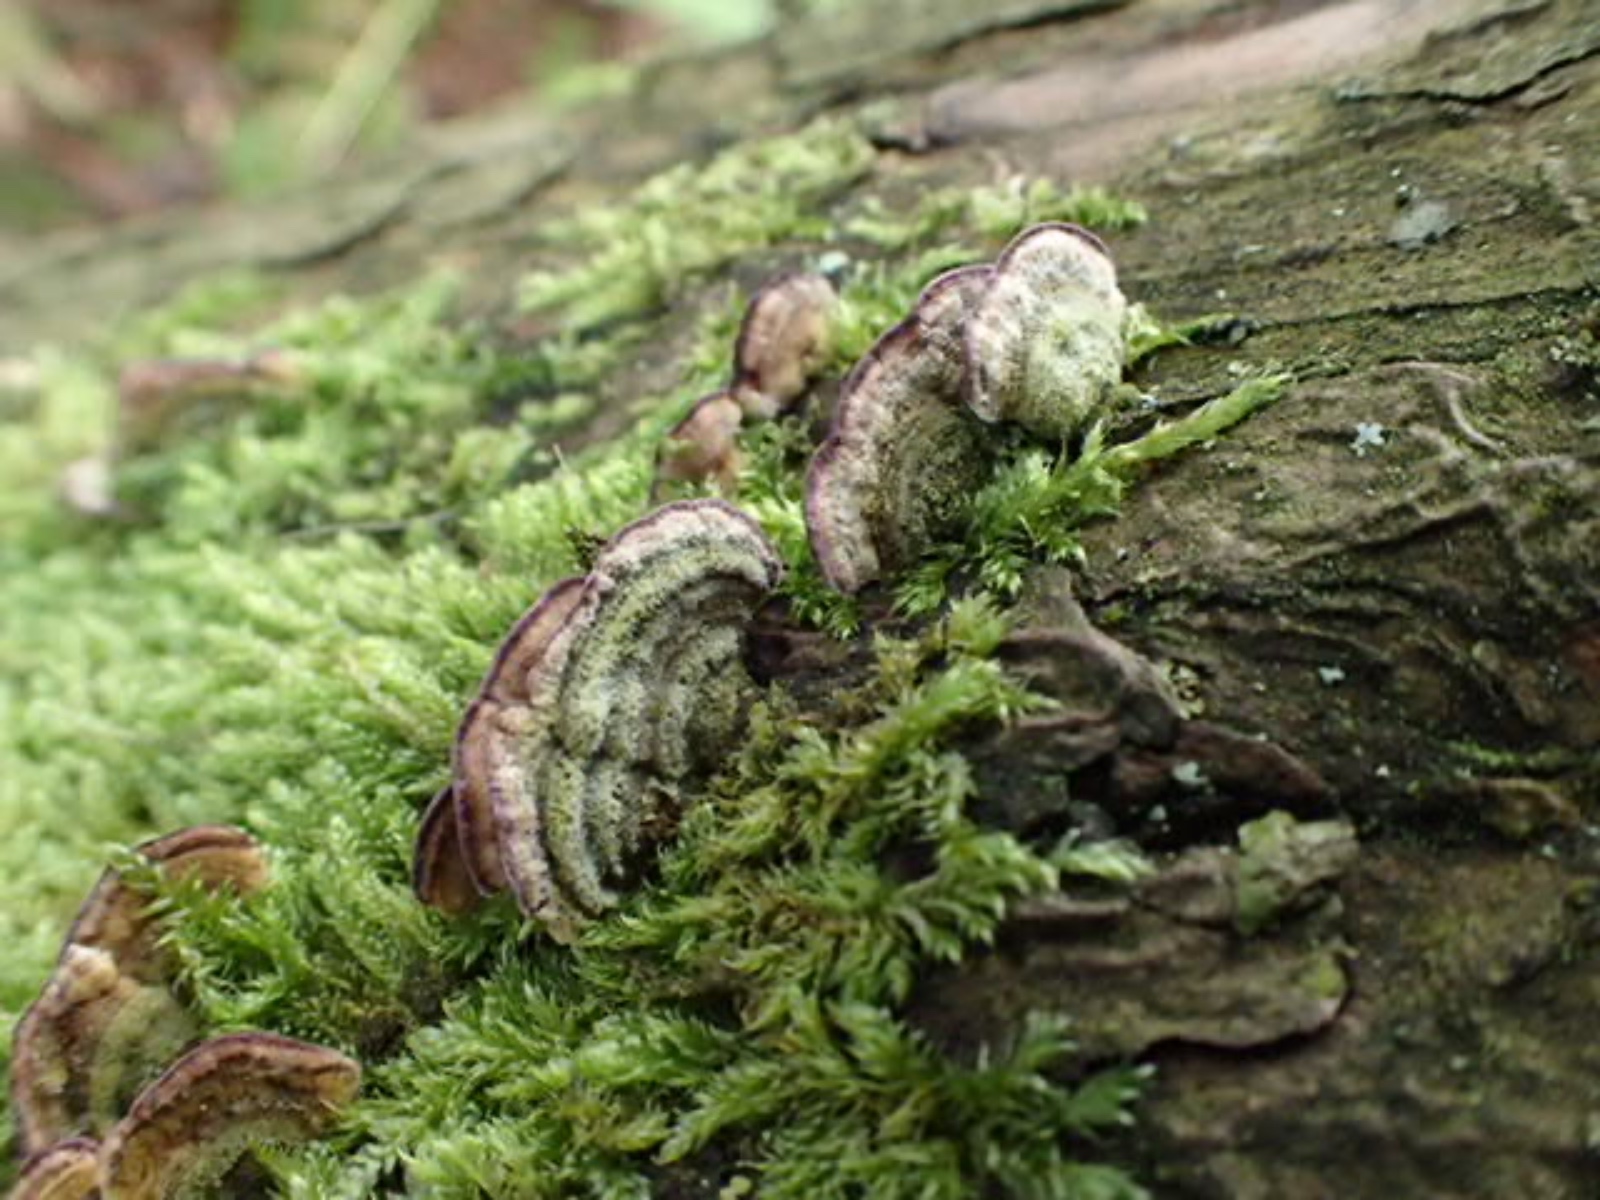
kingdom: Fungi
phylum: Basidiomycota
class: Agaricomycetes
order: Hymenochaetales
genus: Trichaptum
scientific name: Trichaptum fuscoviolaceum
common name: tandet violporesvamp
